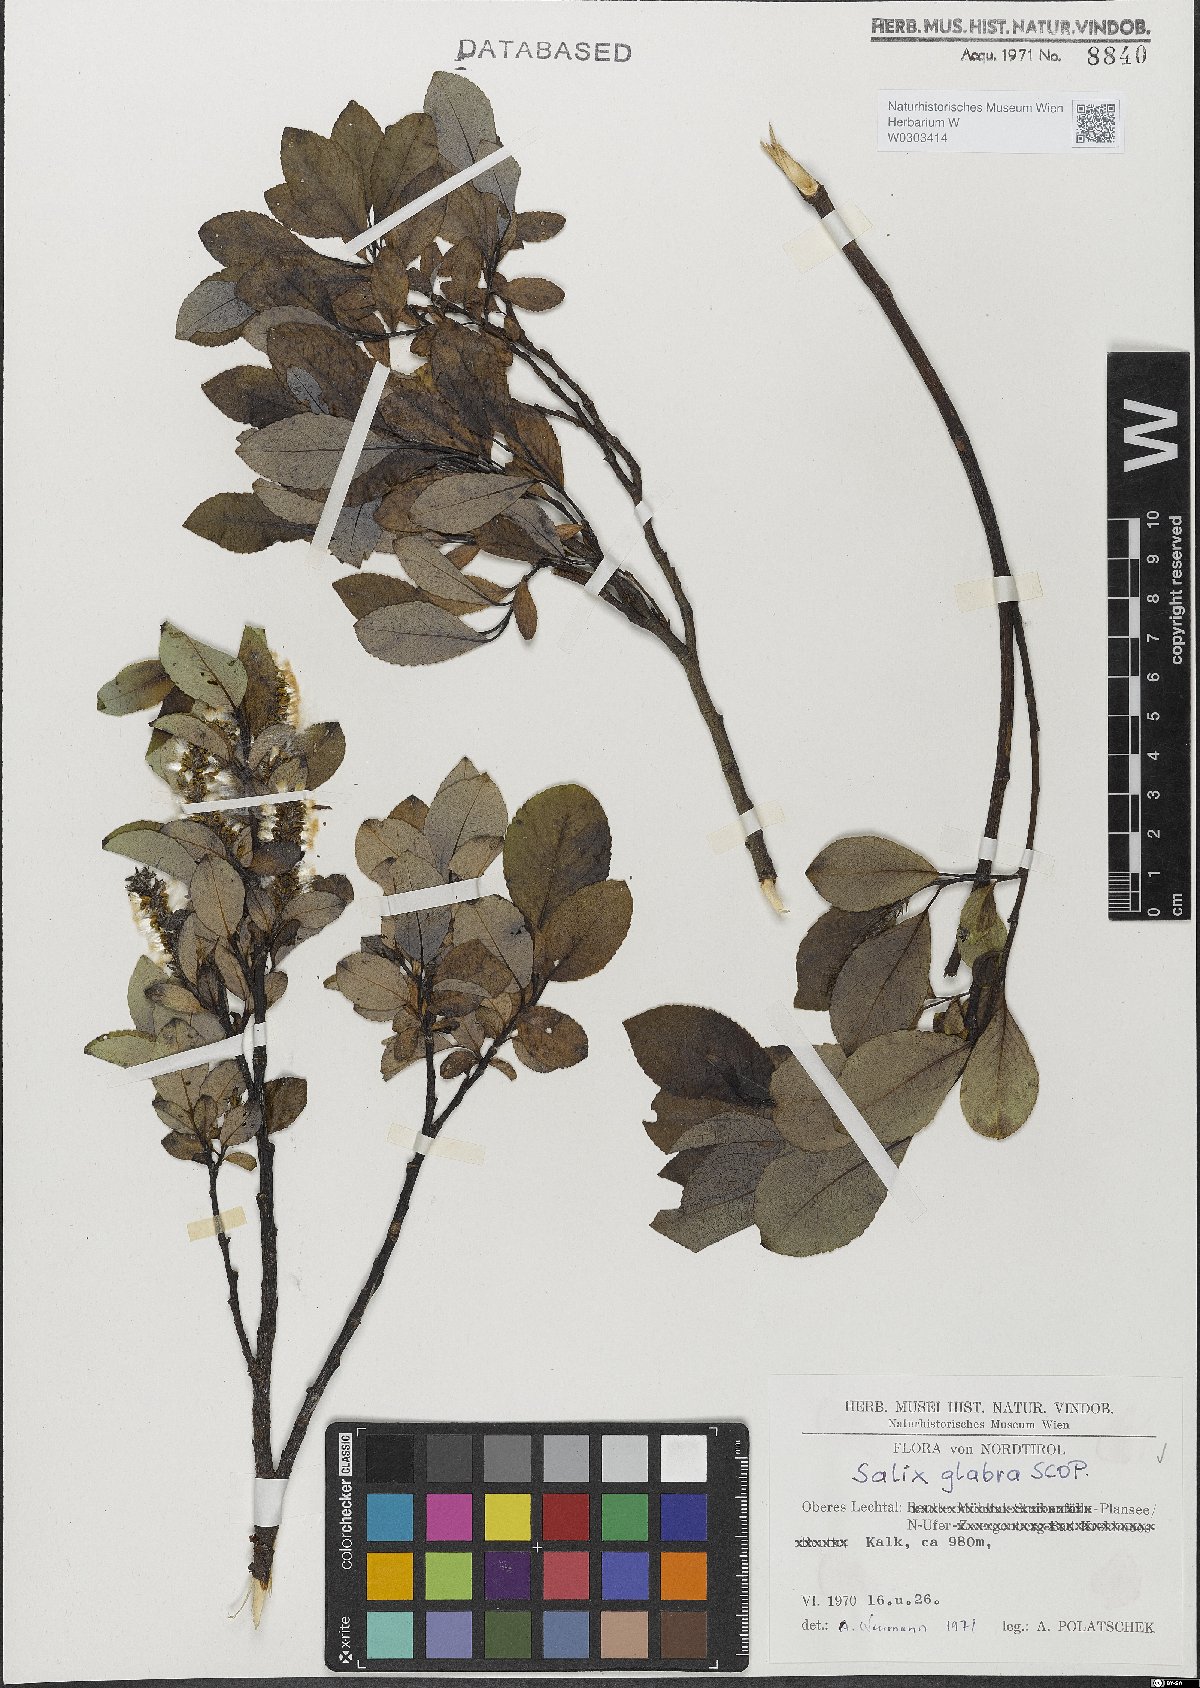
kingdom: Plantae
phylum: Tracheophyta
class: Magnoliopsida
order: Malpighiales
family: Salicaceae
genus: Salix
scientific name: Salix glabra
